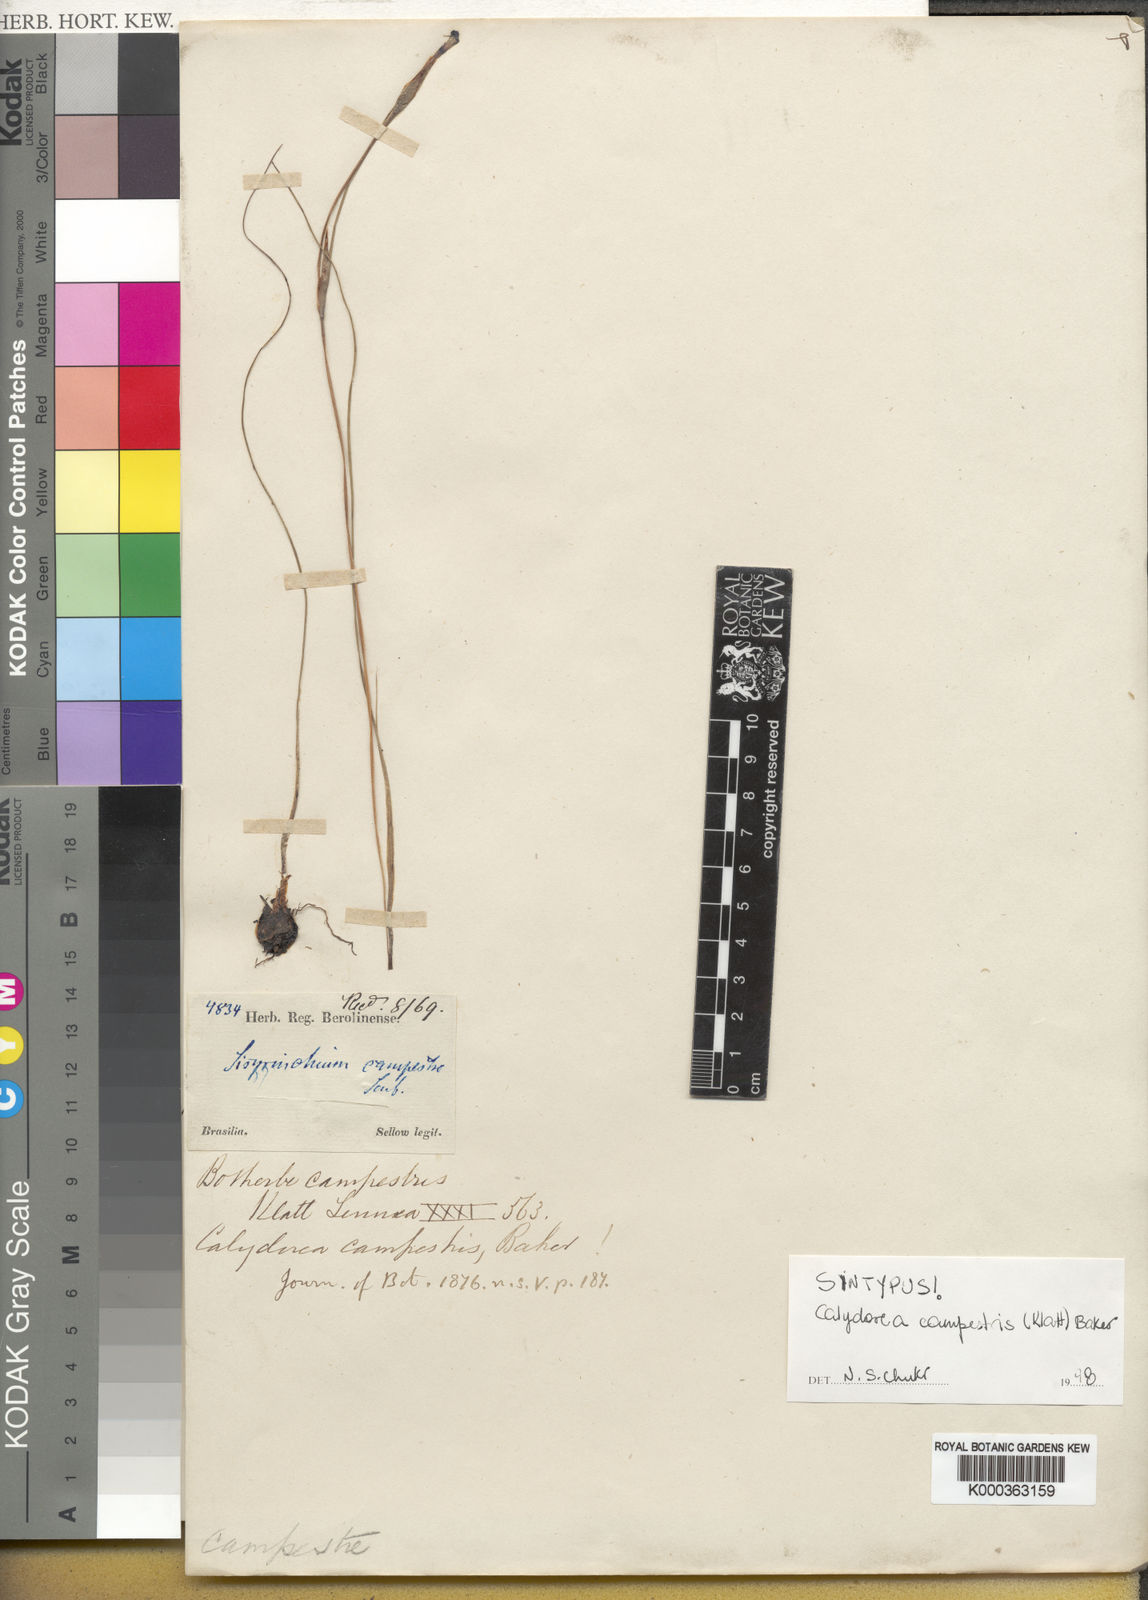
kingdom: Plantae
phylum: Tracheophyta
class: Liliopsida
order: Asparagales
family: Iridaceae
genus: Calydorea
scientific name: Calydorea campestris
